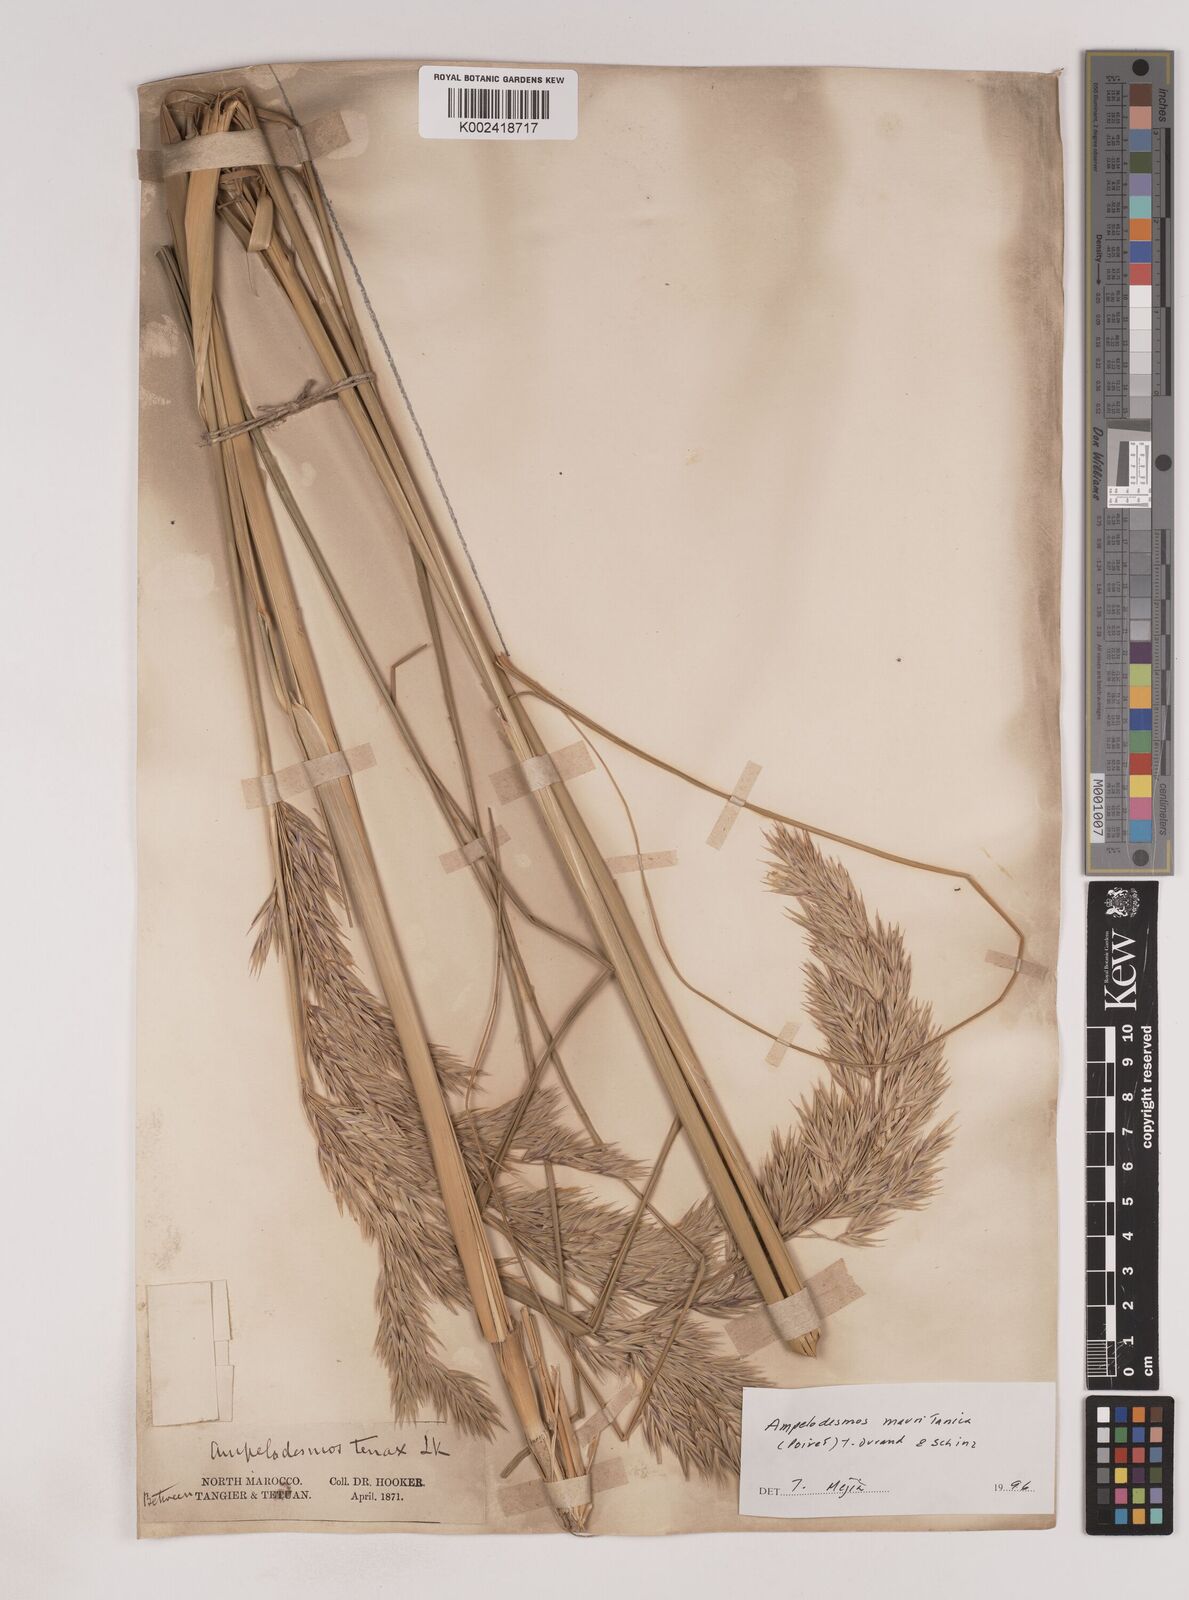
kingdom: Plantae
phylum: Tracheophyta
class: Liliopsida
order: Poales
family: Poaceae
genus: Ampelodesmos
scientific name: Ampelodesmos mauritanicus
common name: Mauritanian grass
